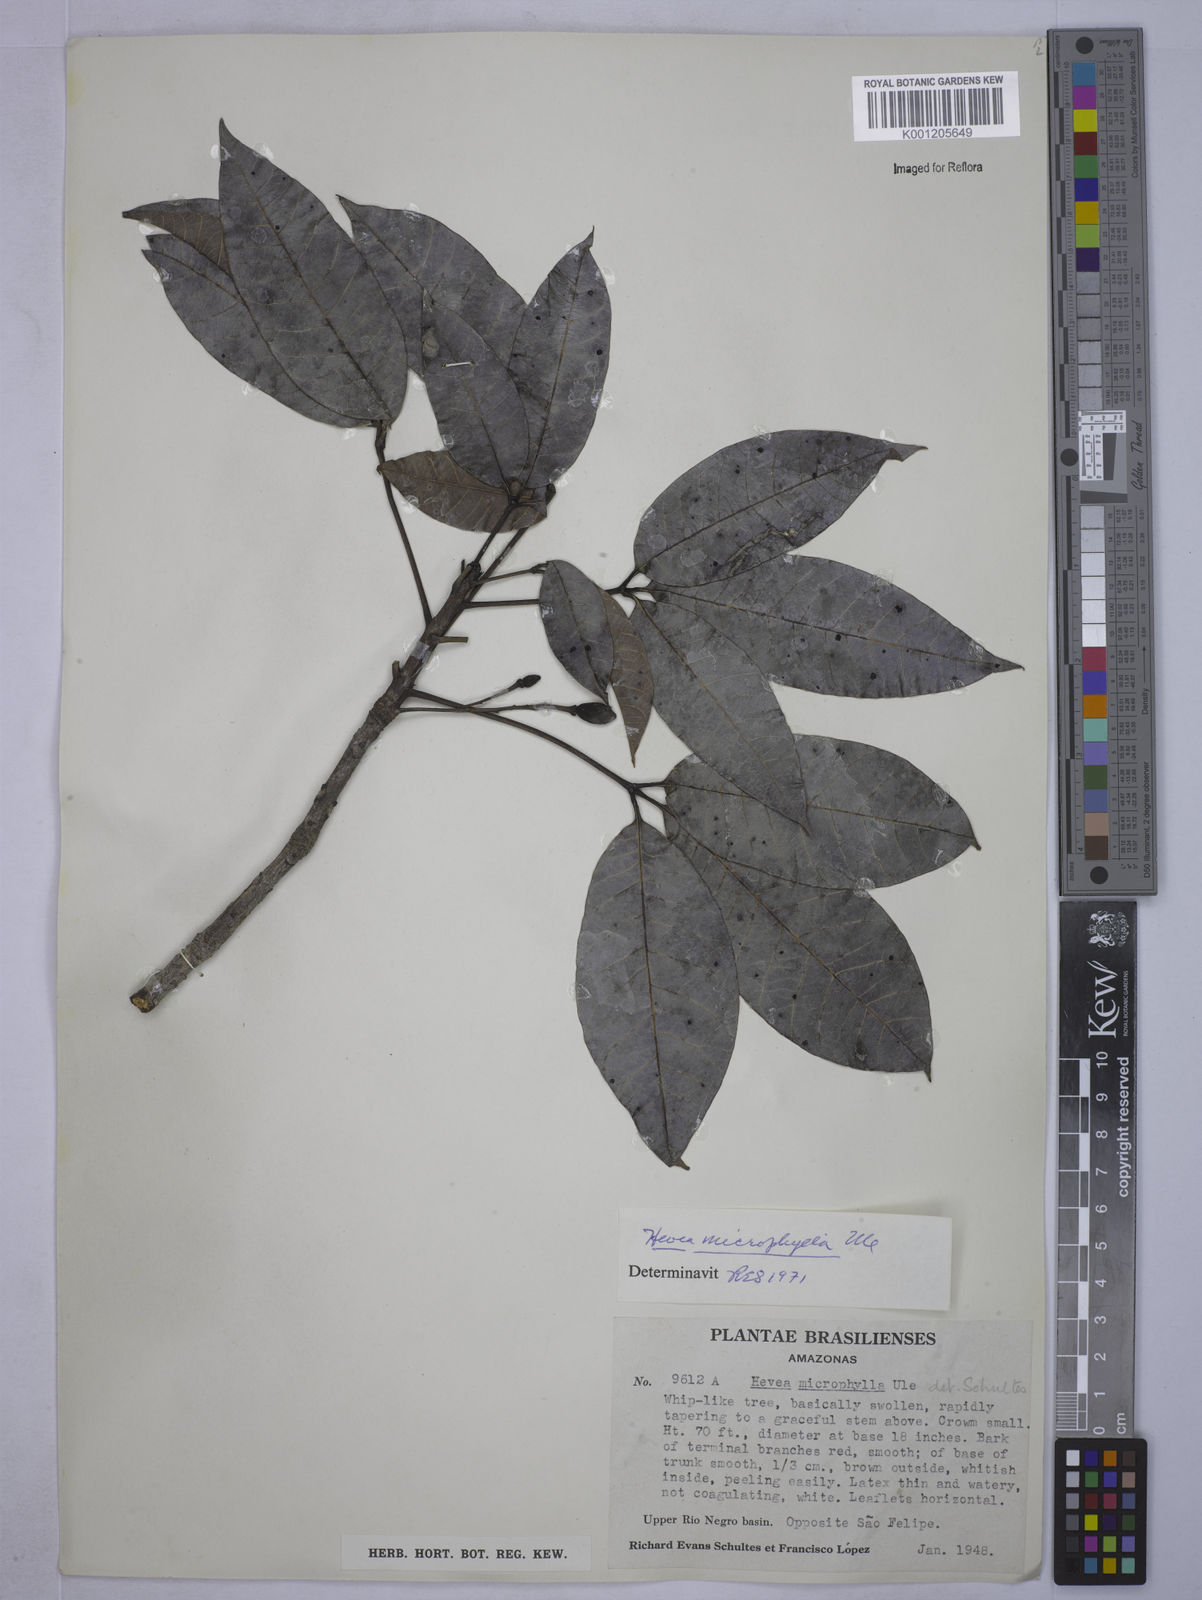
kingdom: Plantae
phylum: Tracheophyta
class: Magnoliopsida
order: Malpighiales
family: Euphorbiaceae
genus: Hevea
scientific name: Hevea microphylla
